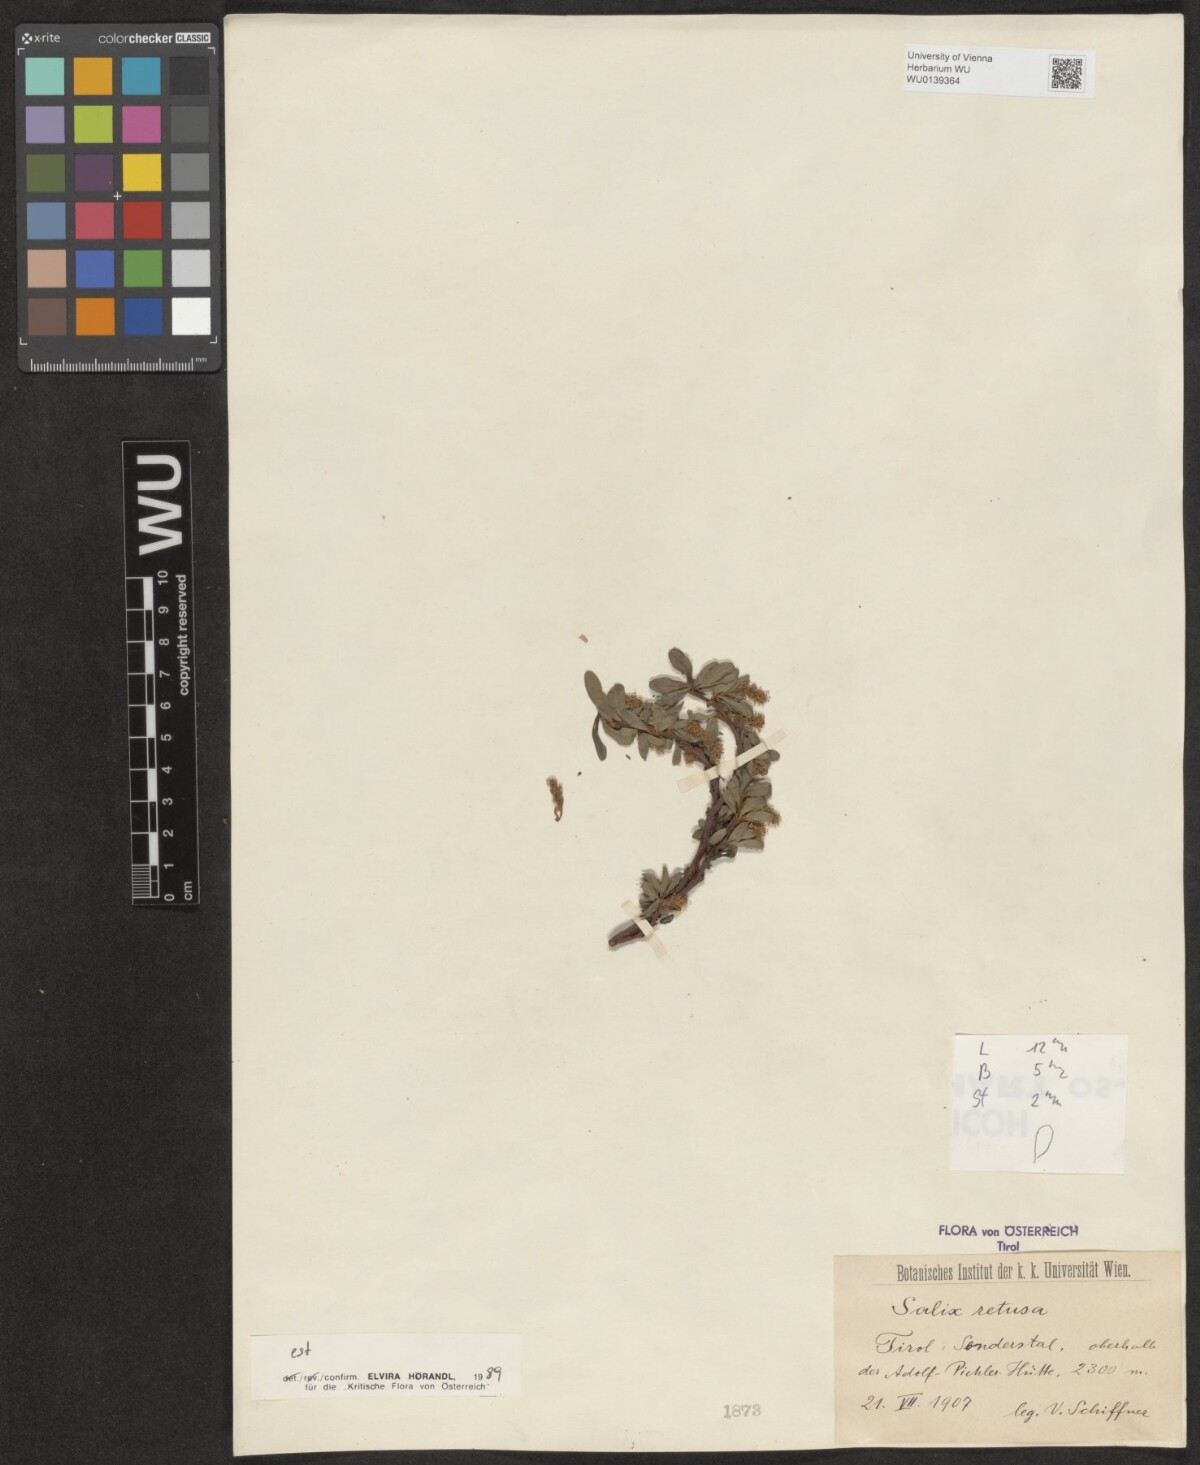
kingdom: Plantae
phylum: Tracheophyta
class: Magnoliopsida
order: Malpighiales
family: Salicaceae
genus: Salix
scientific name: Salix retusa
